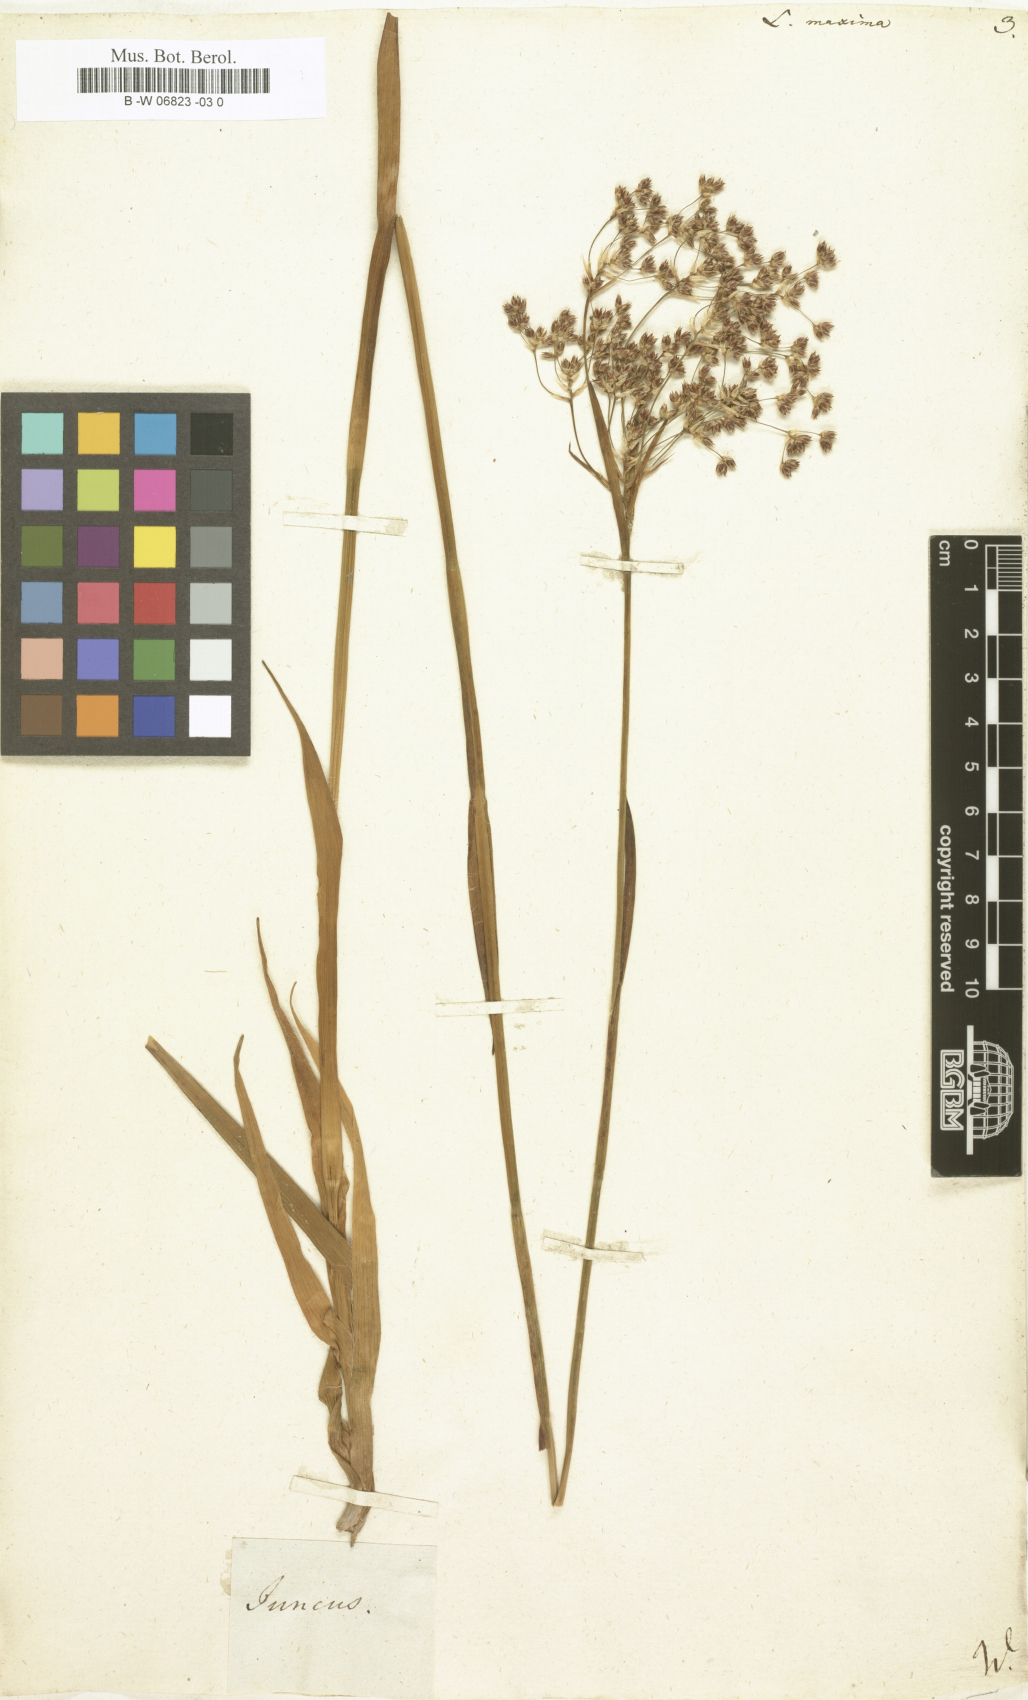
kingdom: Plantae
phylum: Tracheophyta
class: Liliopsida
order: Poales
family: Juncaceae
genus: Luzula
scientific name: Luzula sylvatica
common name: Great wood-rush
